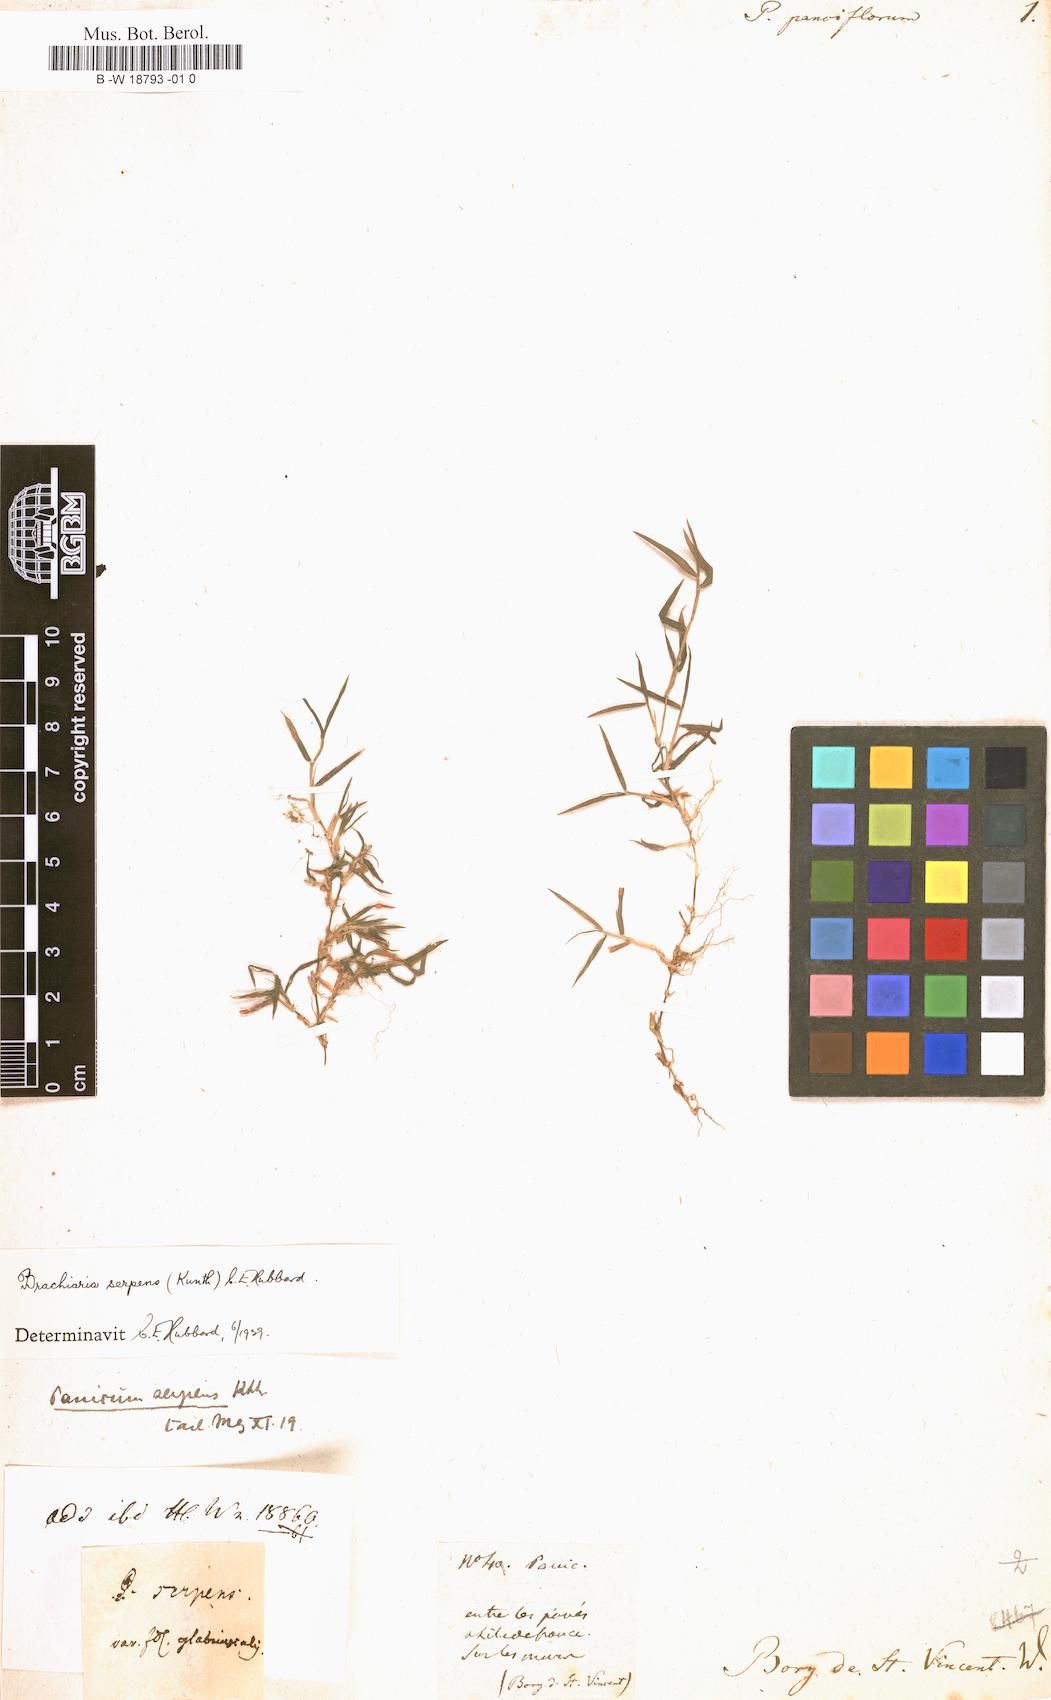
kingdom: Plantae
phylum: Tracheophyta
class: Liliopsida
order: Poales
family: Poaceae
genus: Panicum
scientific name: Panicum pauciflorum
